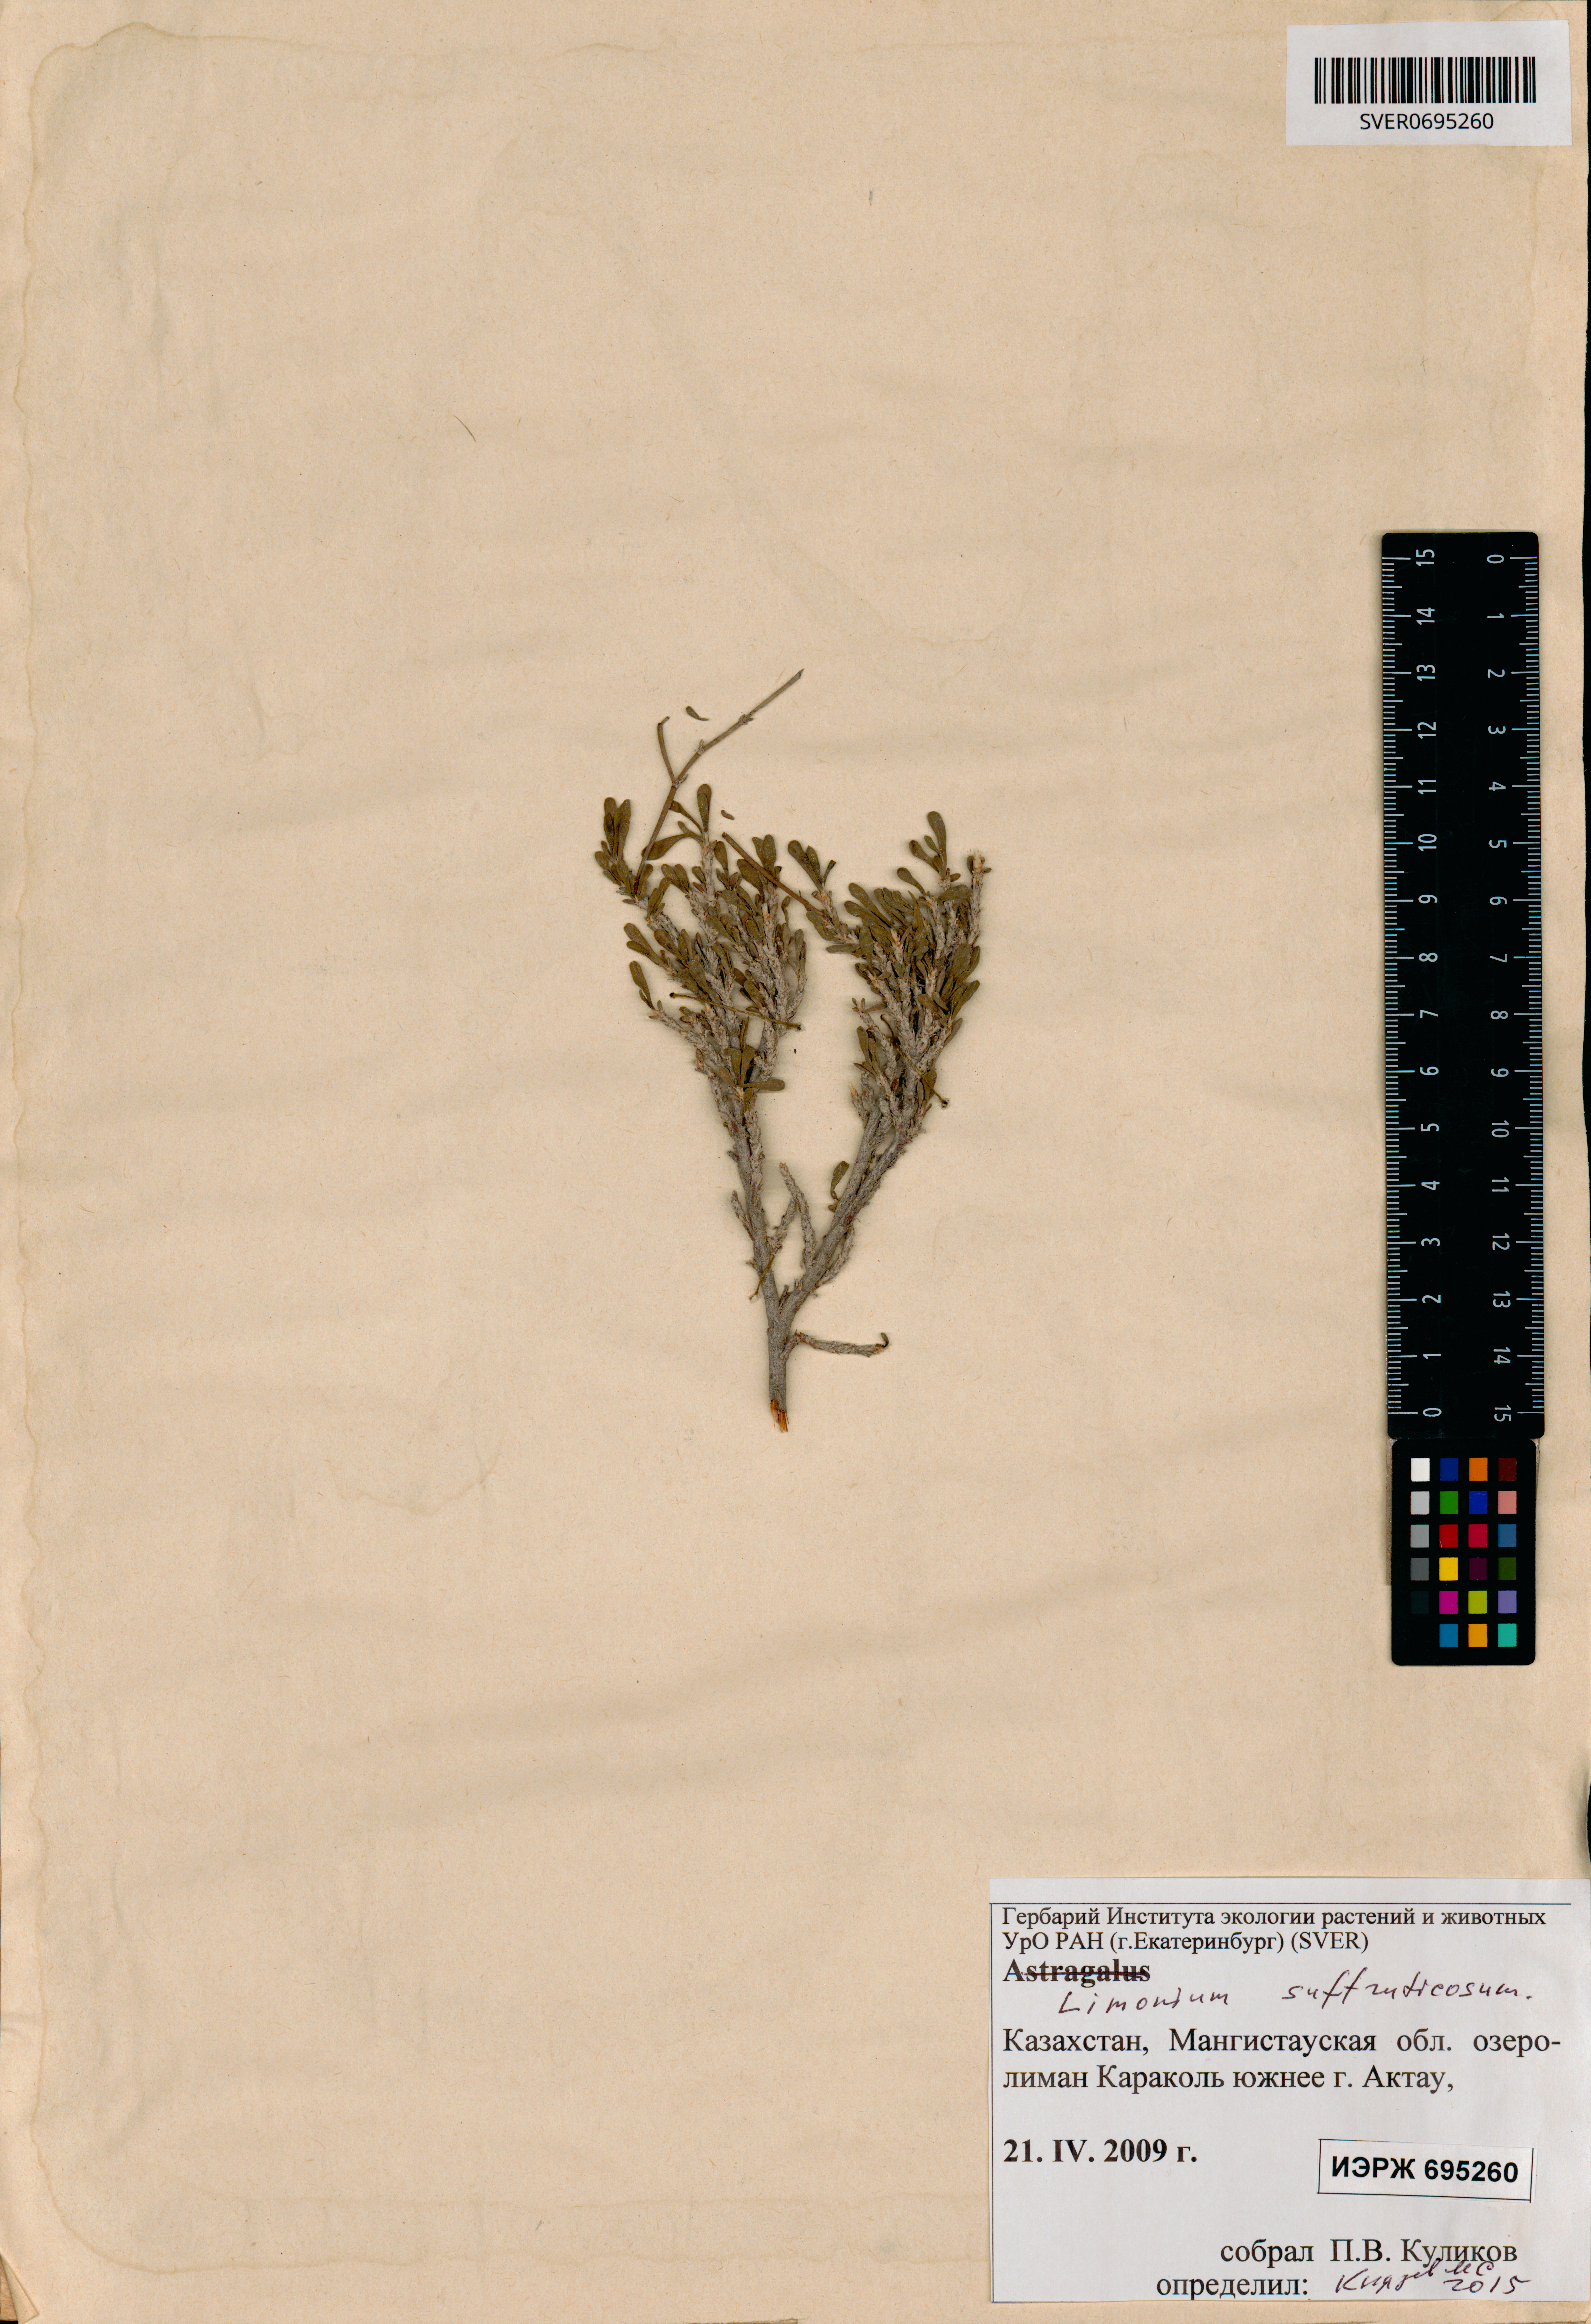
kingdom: Plantae
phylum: Tracheophyta
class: Magnoliopsida
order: Caryophyllales
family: Plumbaginaceae
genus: Limonium
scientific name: Limonium suffruticosum
